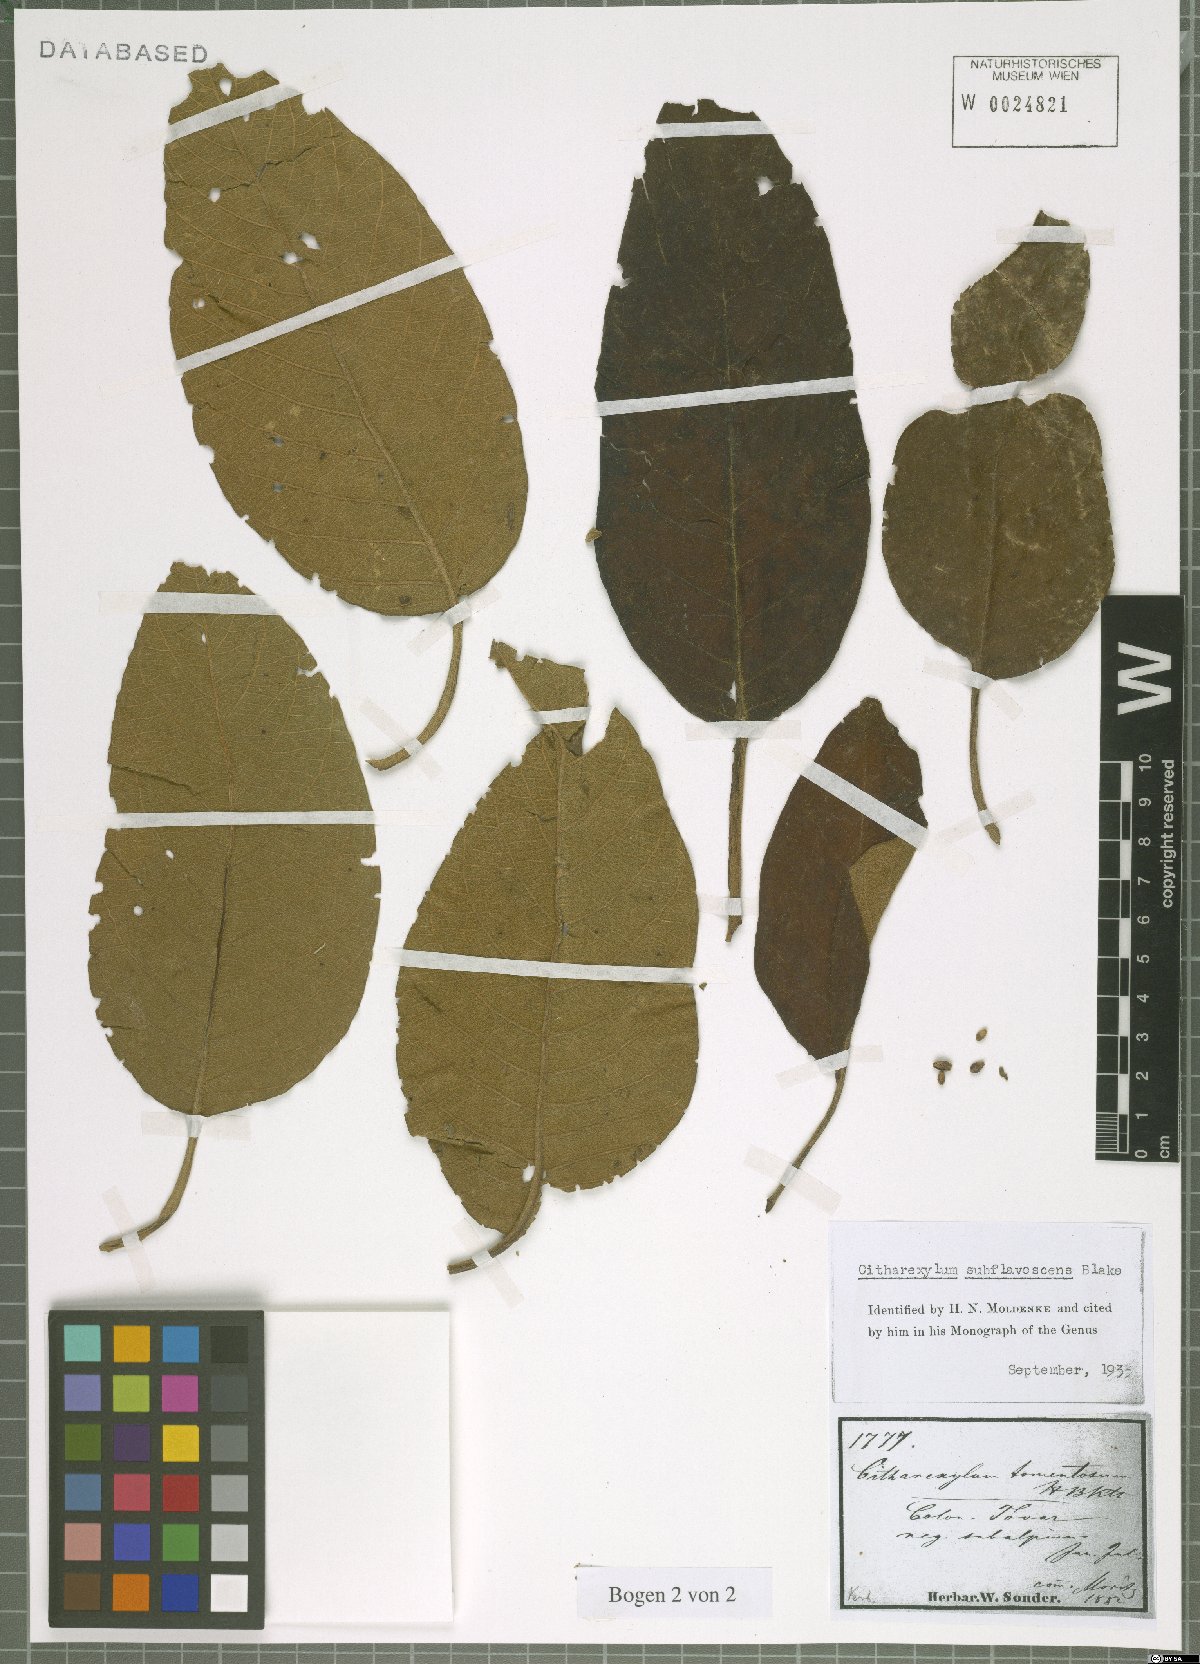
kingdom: Plantae
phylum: Tracheophyta
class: Magnoliopsida
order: Lamiales
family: Verbenaceae
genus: Citharexylum
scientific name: Citharexylum subflavescens
